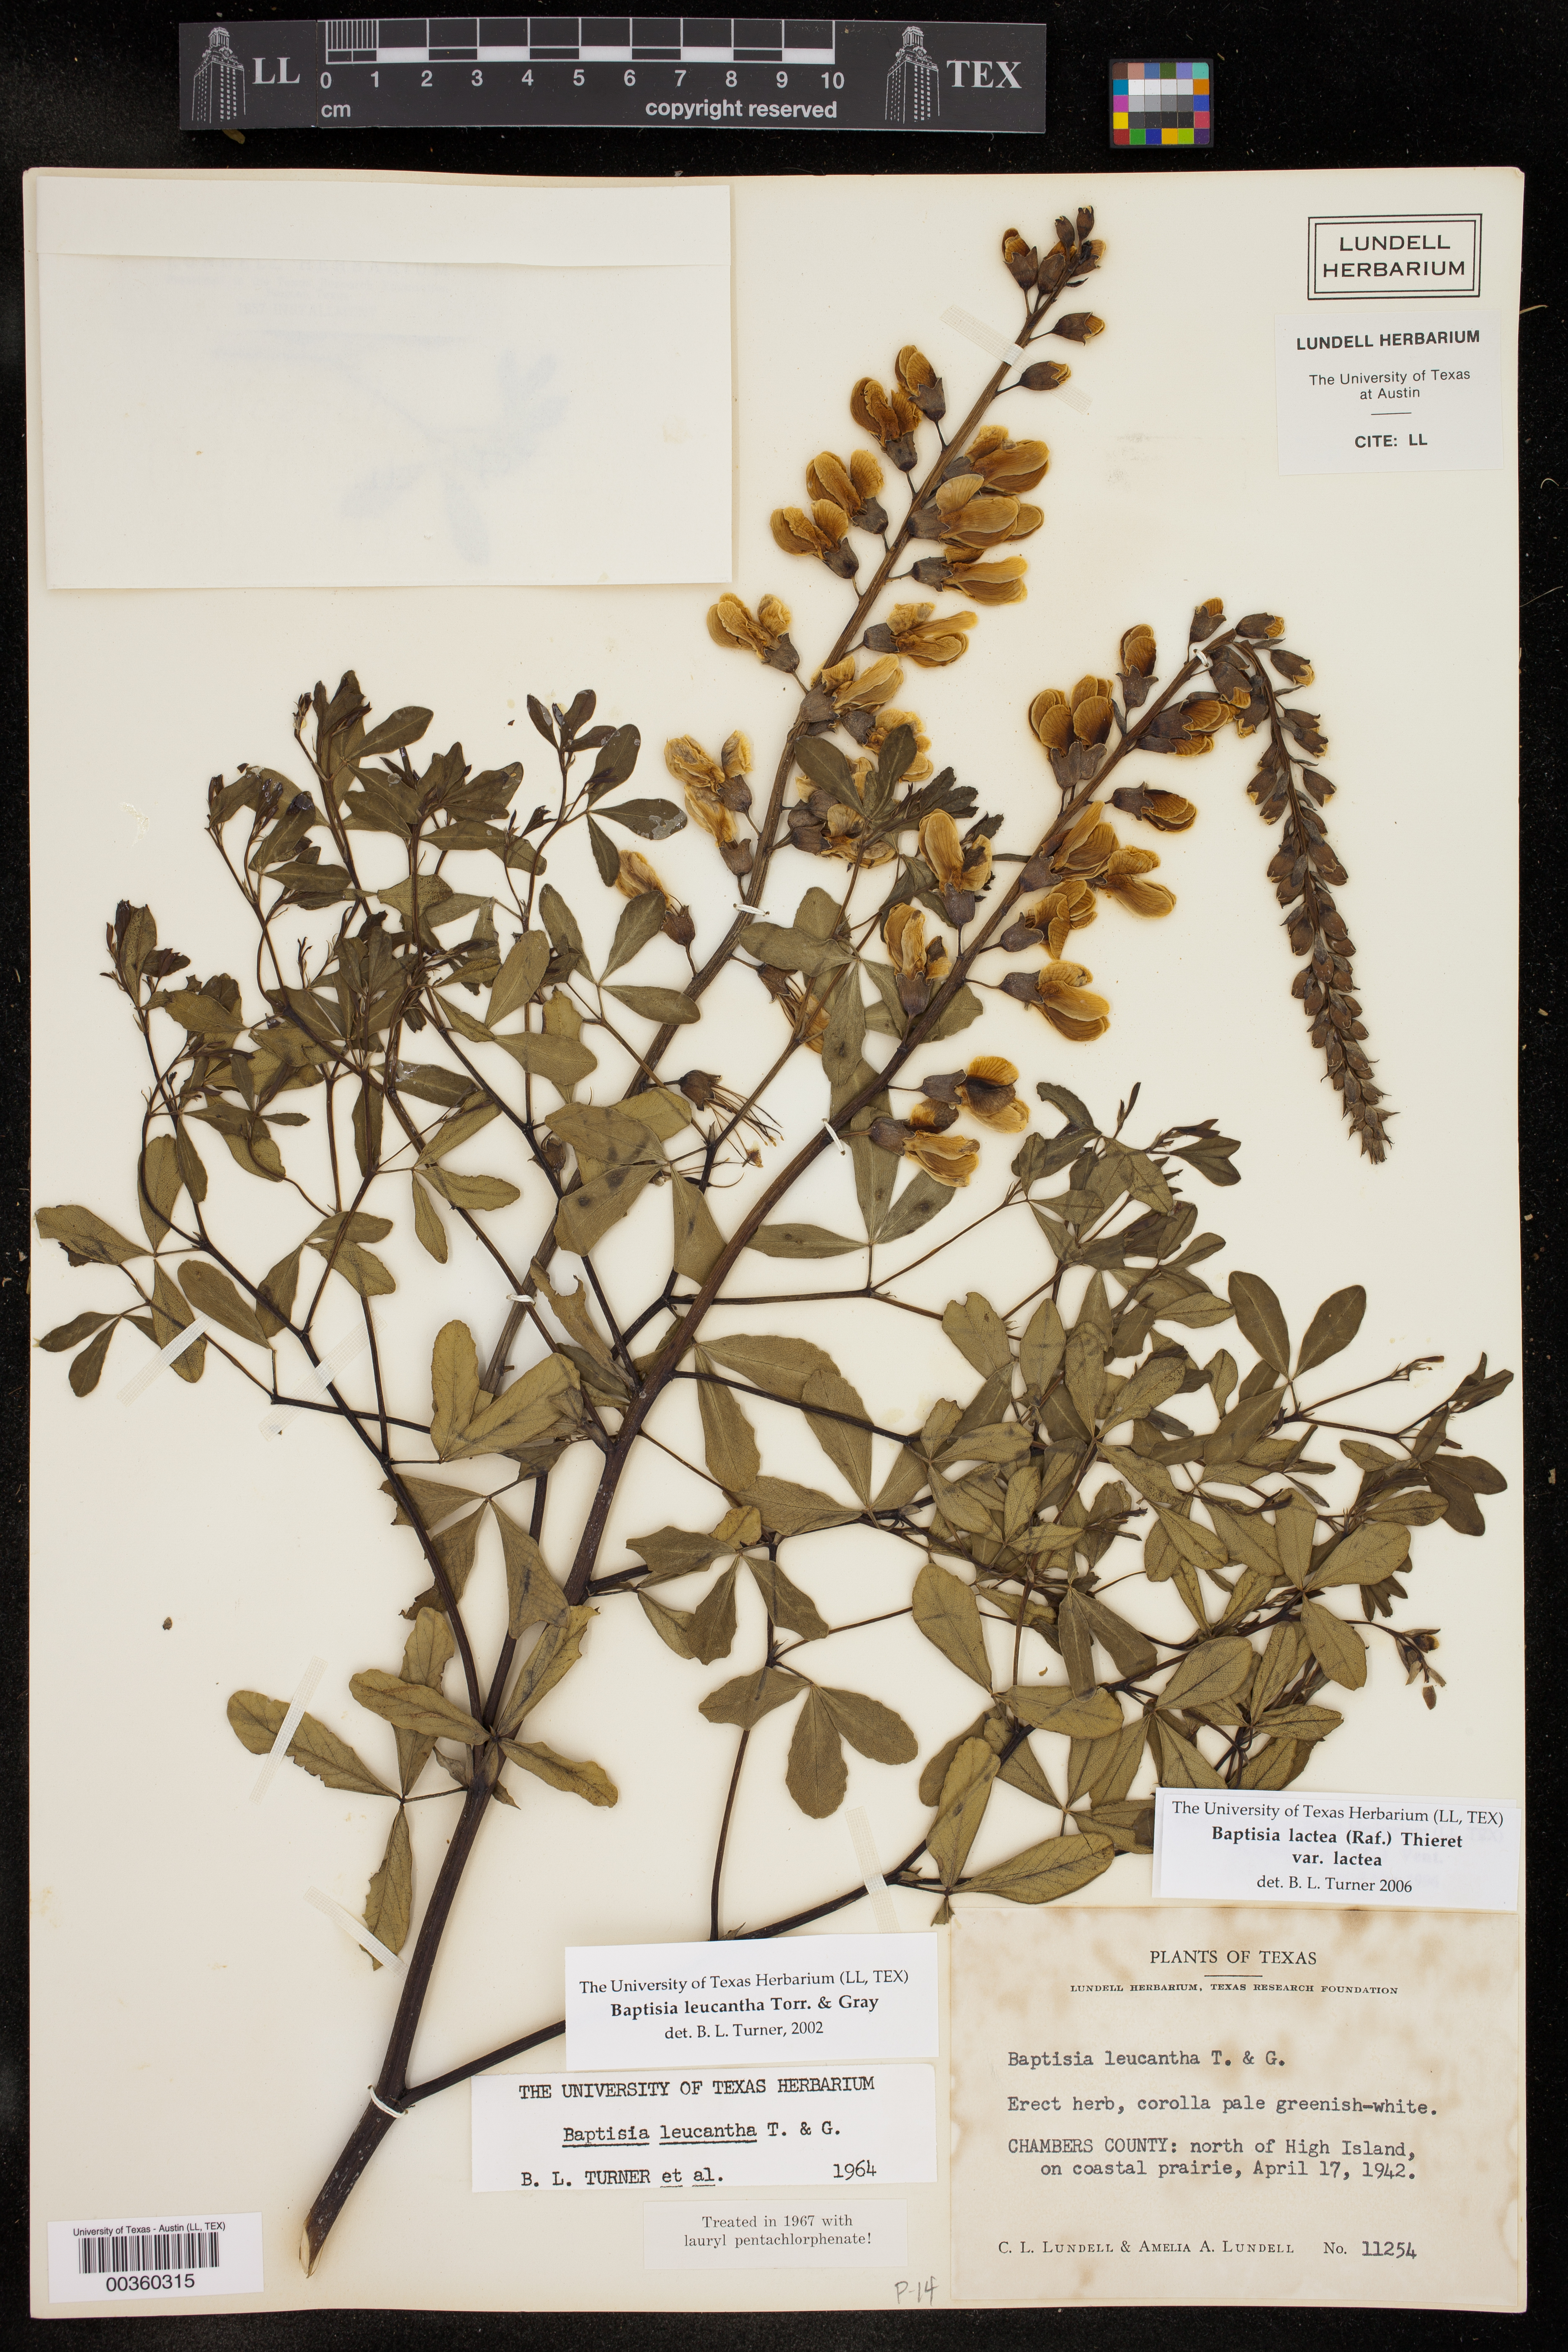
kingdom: Plantae
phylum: Tracheophyta
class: Magnoliopsida
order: Fabales
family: Fabaceae
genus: Baptisia
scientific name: Baptisia alba
